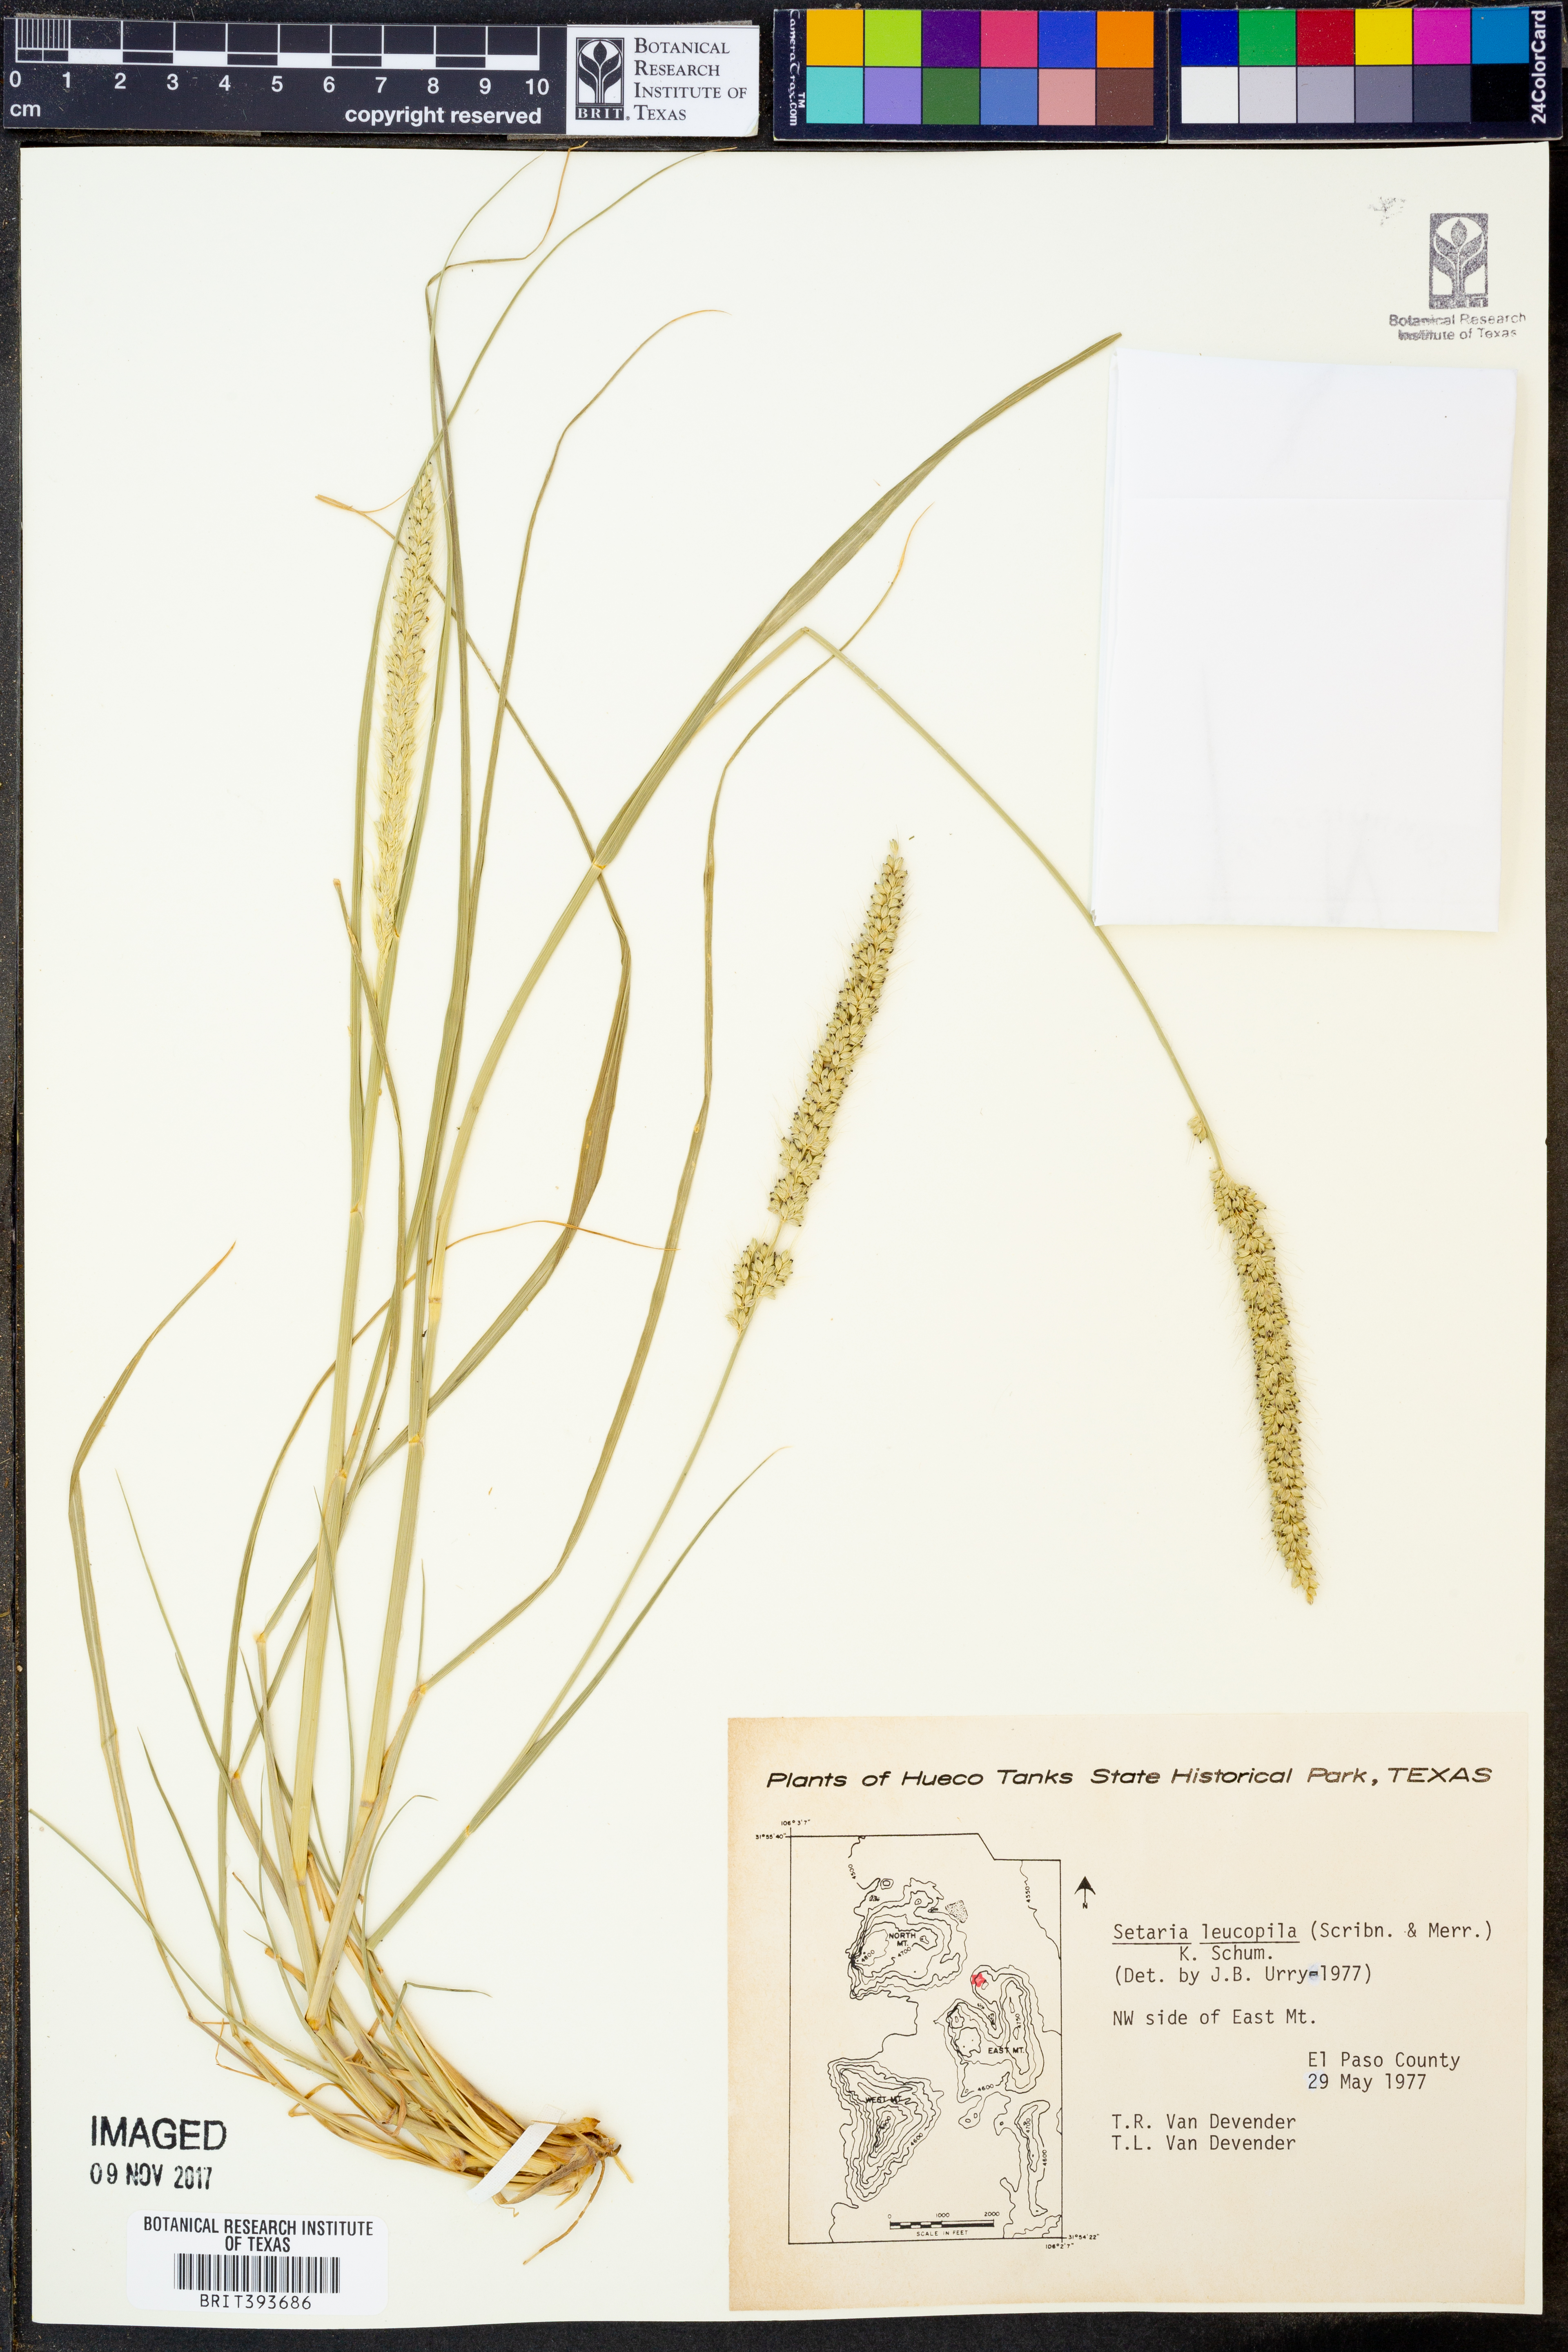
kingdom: Plantae
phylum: Tracheophyta
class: Liliopsida
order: Poales
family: Poaceae
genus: Setaria
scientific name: Setaria leucopila
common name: Plains bristle grass
